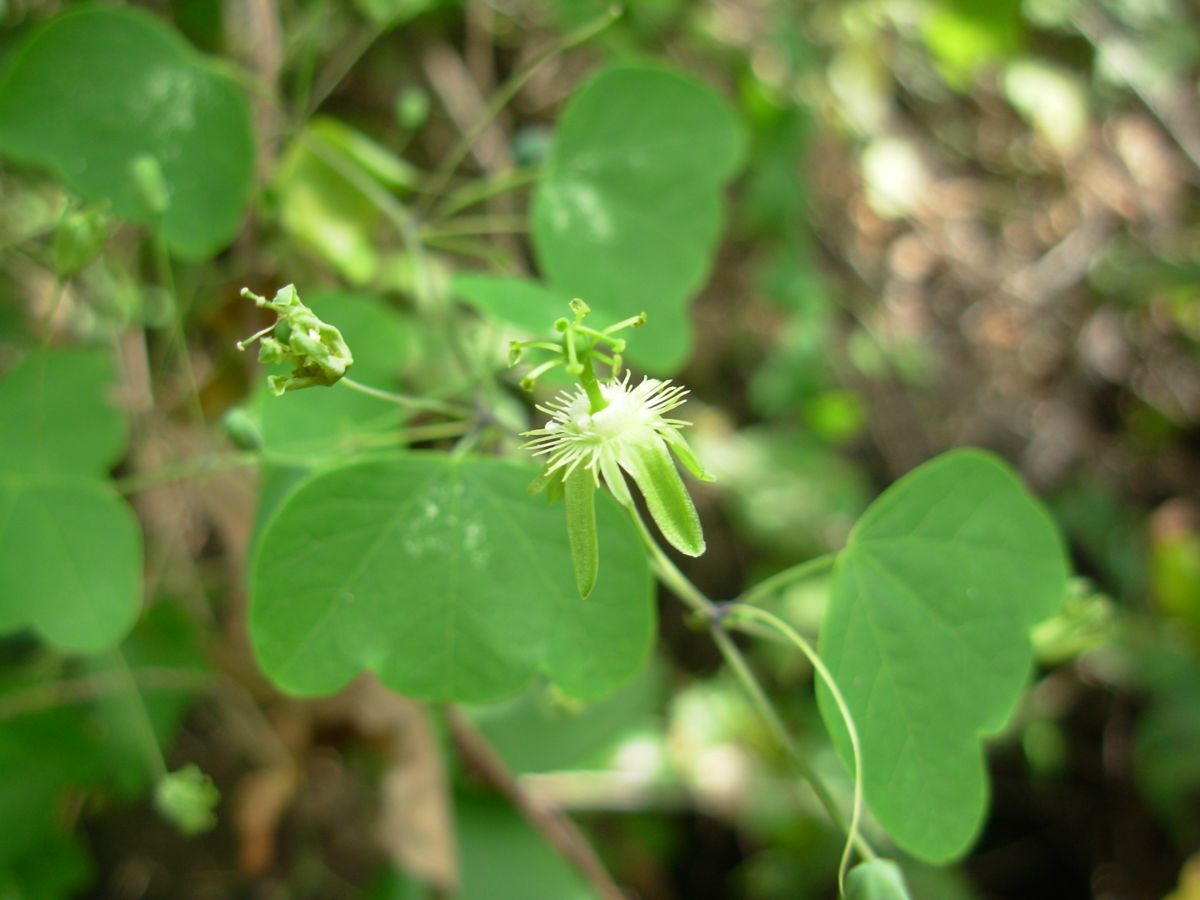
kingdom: Plantae
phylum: Tracheophyta
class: Magnoliopsida
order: Malpighiales
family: Passifloraceae
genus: Passiflora
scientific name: Passiflora filipes
